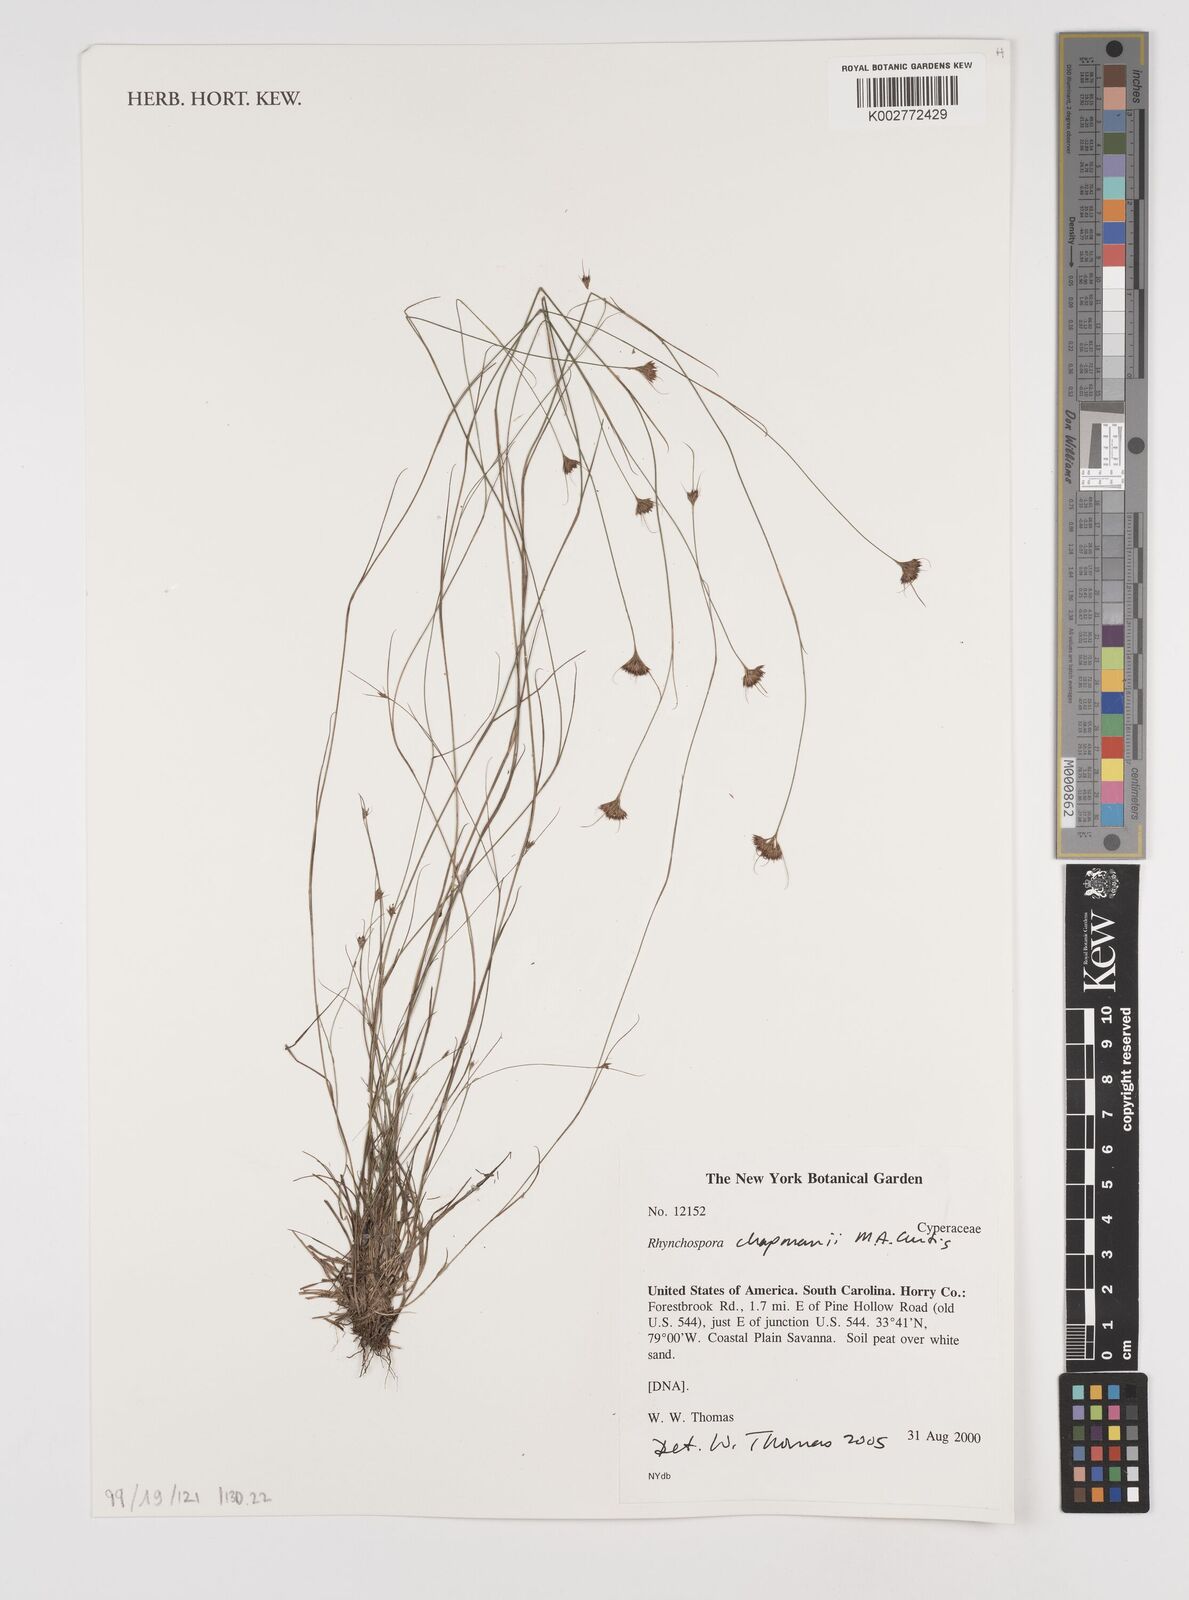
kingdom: Plantae
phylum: Tracheophyta
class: Liliopsida
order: Poales
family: Cyperaceae
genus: Rhynchospora
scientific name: Rhynchospora
